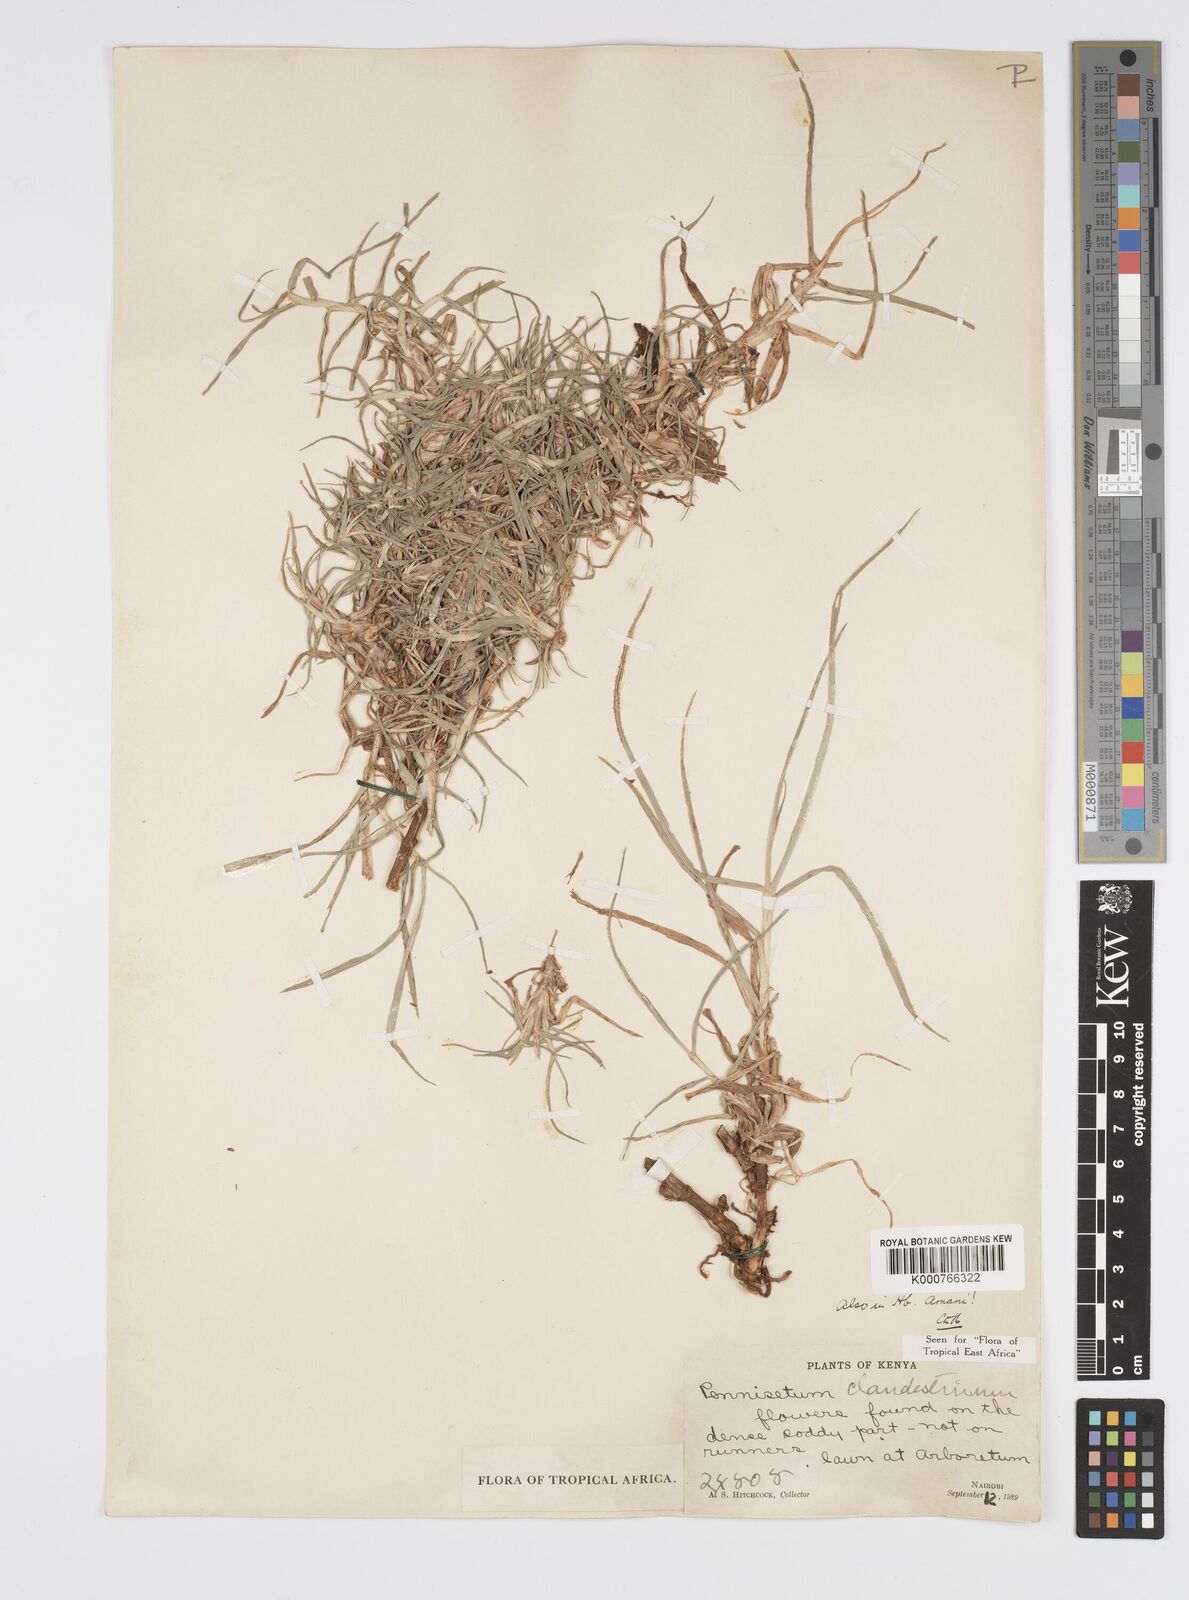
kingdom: Plantae
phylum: Tracheophyta
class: Liliopsida
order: Poales
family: Poaceae
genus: Cenchrus
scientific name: Cenchrus clandestinus
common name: Kikuyugrass
